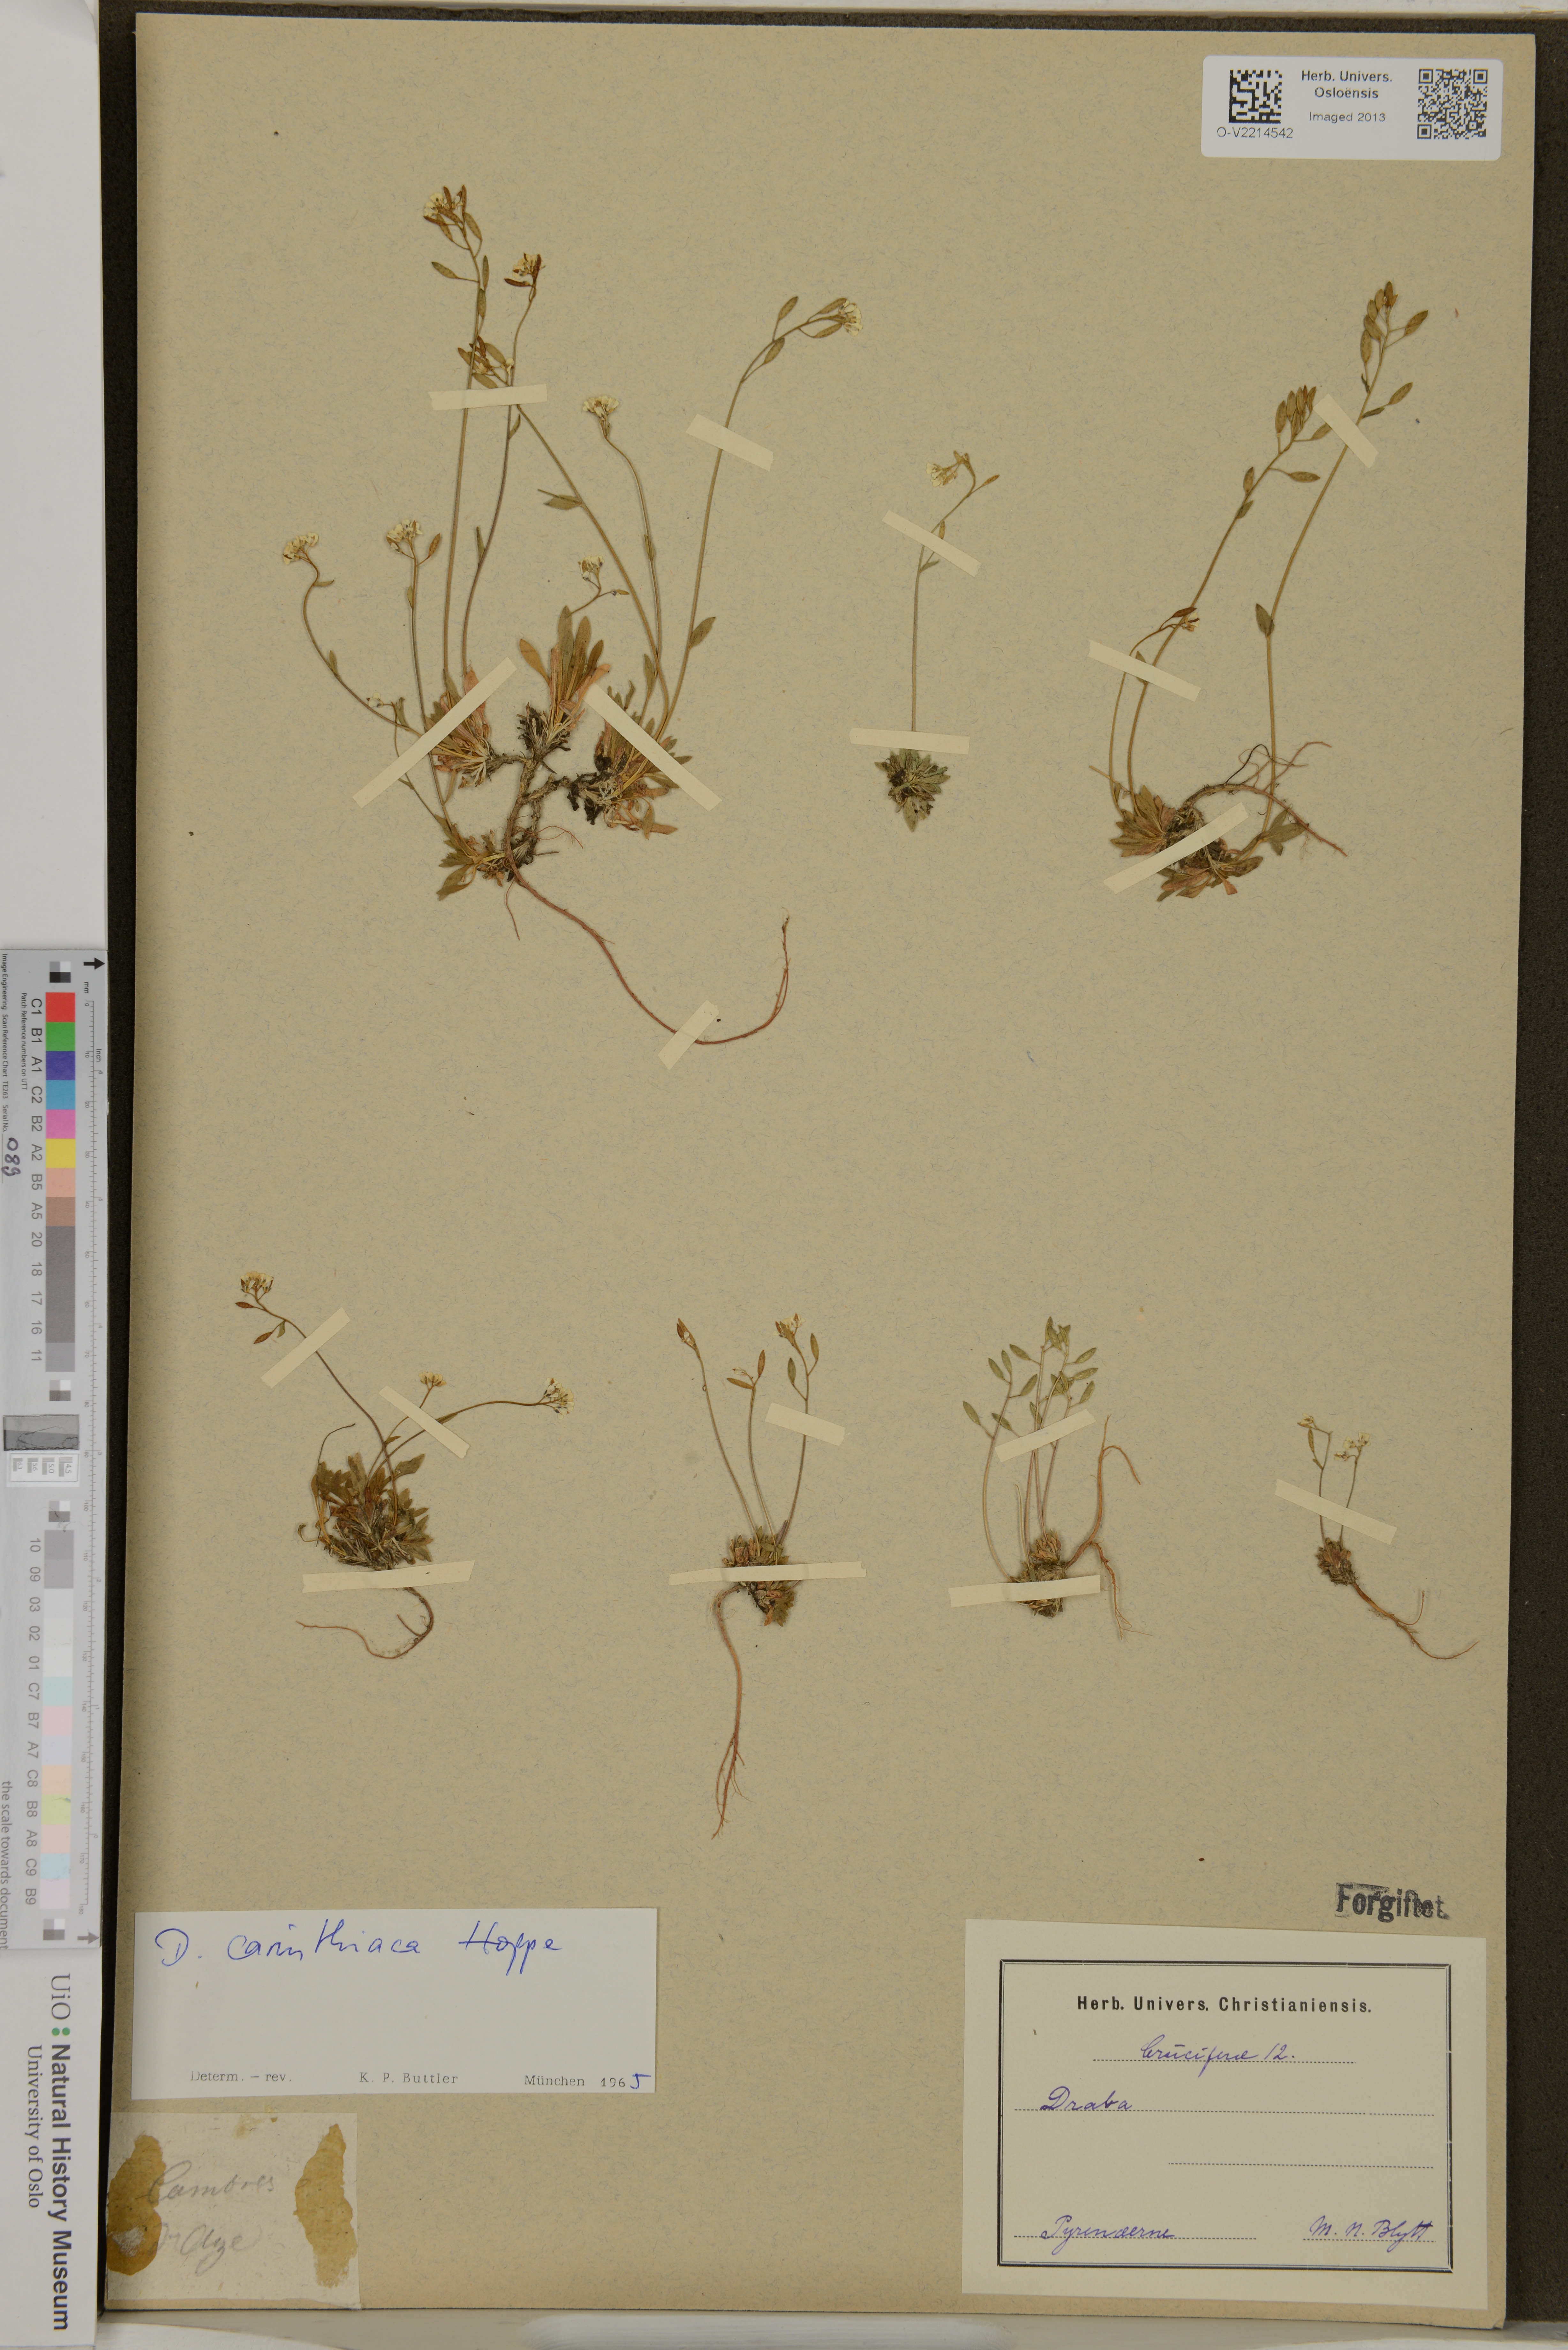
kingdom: Plantae
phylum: Tracheophyta
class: Magnoliopsida
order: Brassicales
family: Brassicaceae
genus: Draba
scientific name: Draba siliquosa
